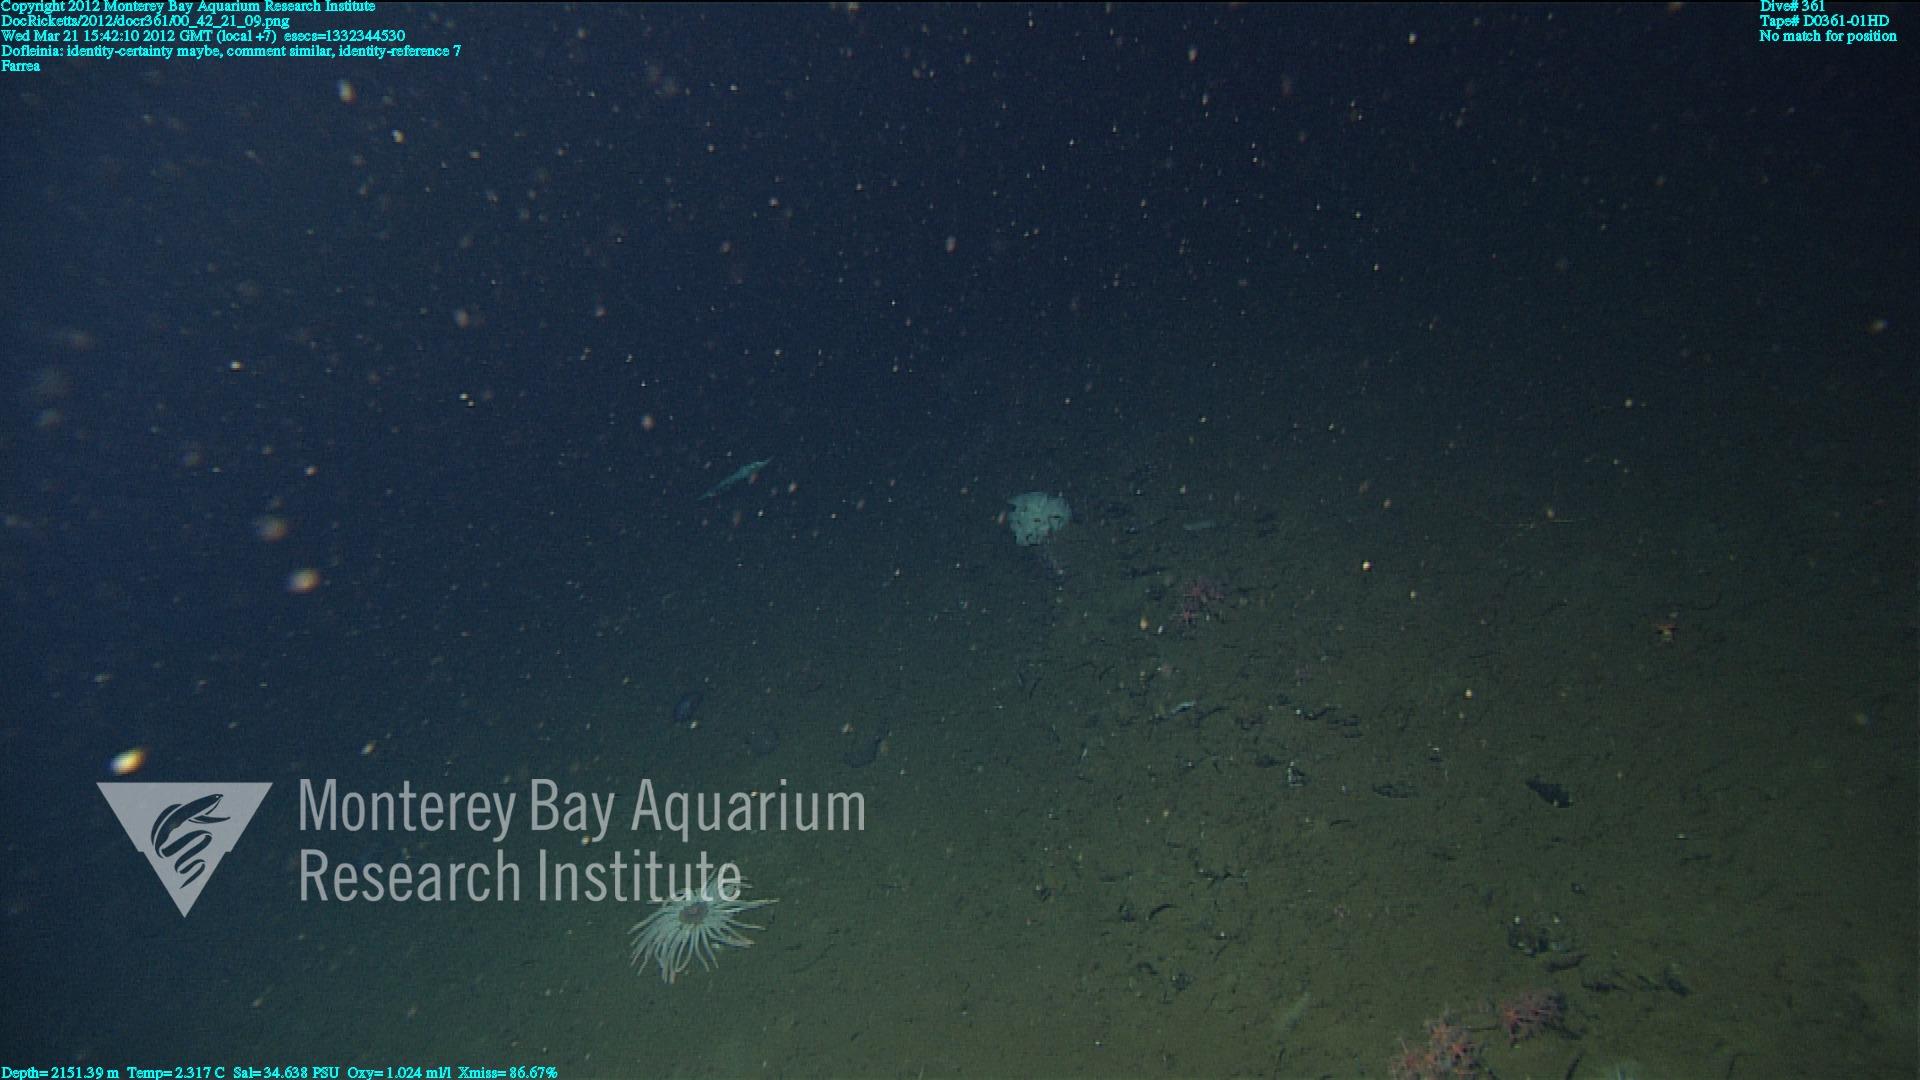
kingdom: Animalia
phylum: Porifera
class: Hexactinellida
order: Sceptrulophora
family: Farreidae
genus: Farrea
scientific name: Farrea
